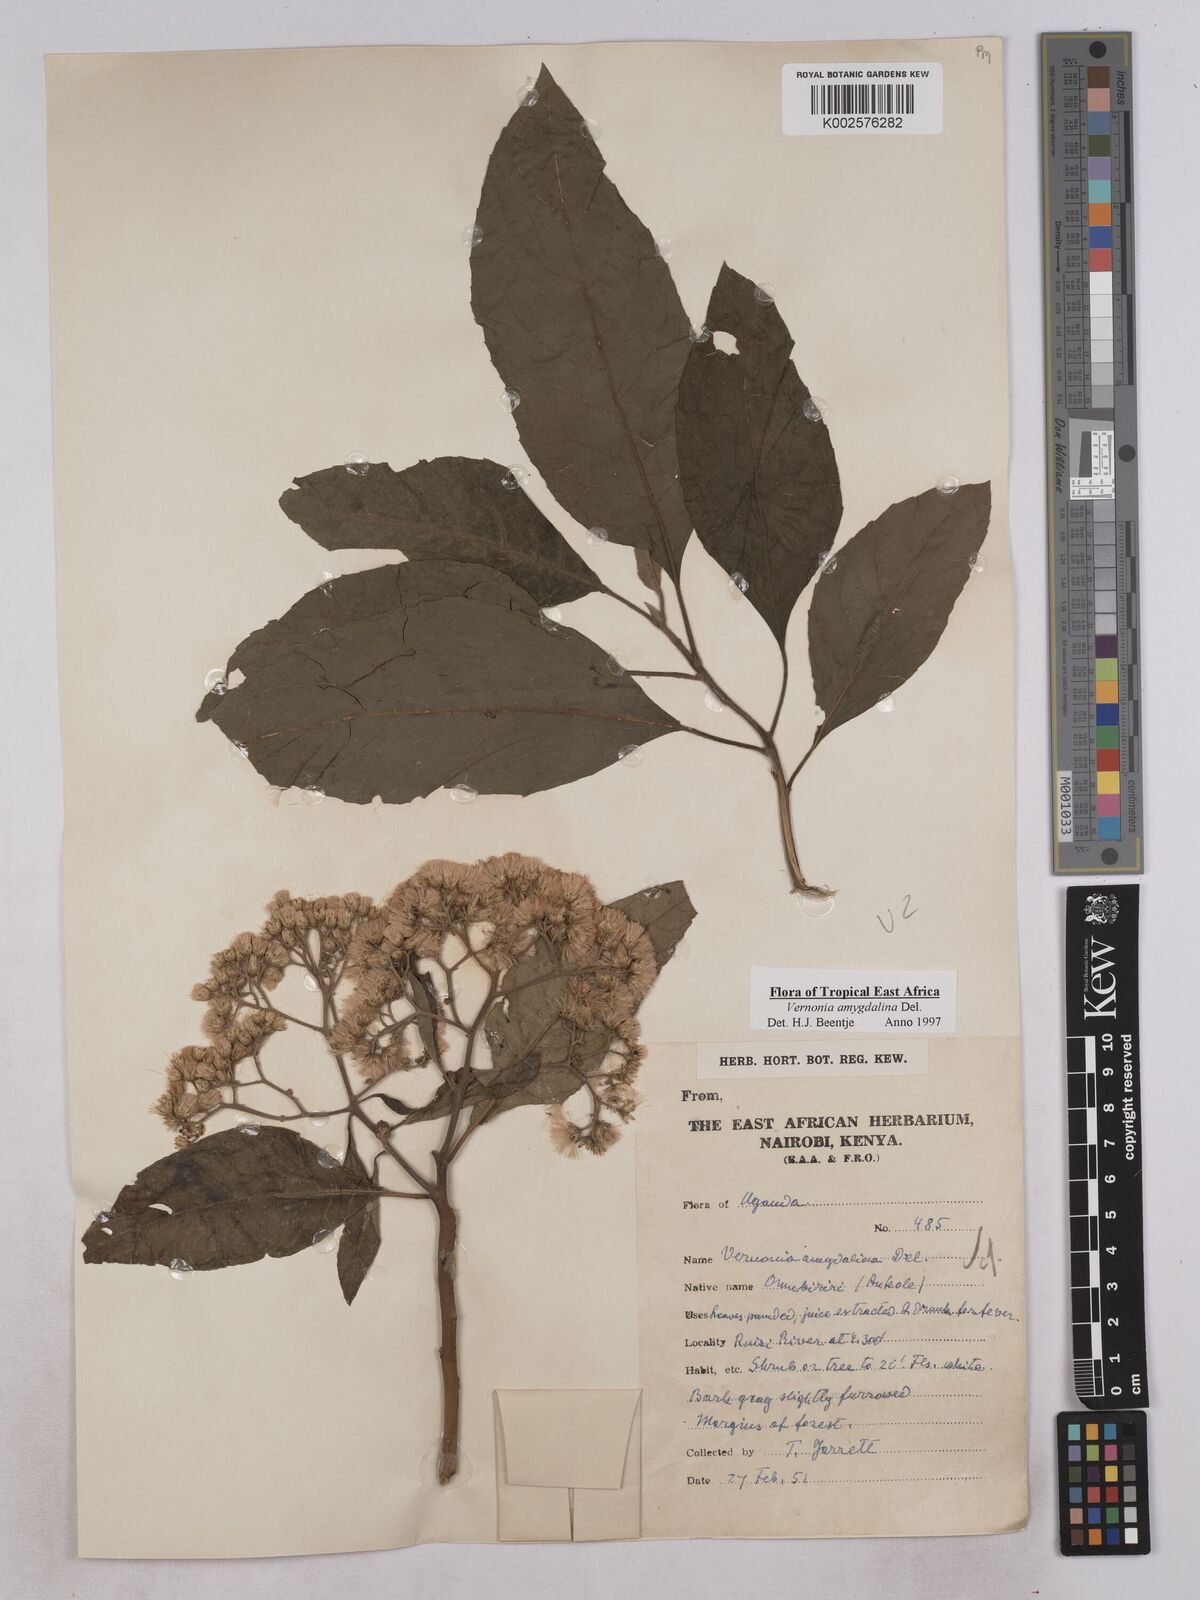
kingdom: Plantae
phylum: Tracheophyta
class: Magnoliopsida
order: Asterales
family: Asteraceae
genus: Gymnanthemum
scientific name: Gymnanthemum amygdalinum
